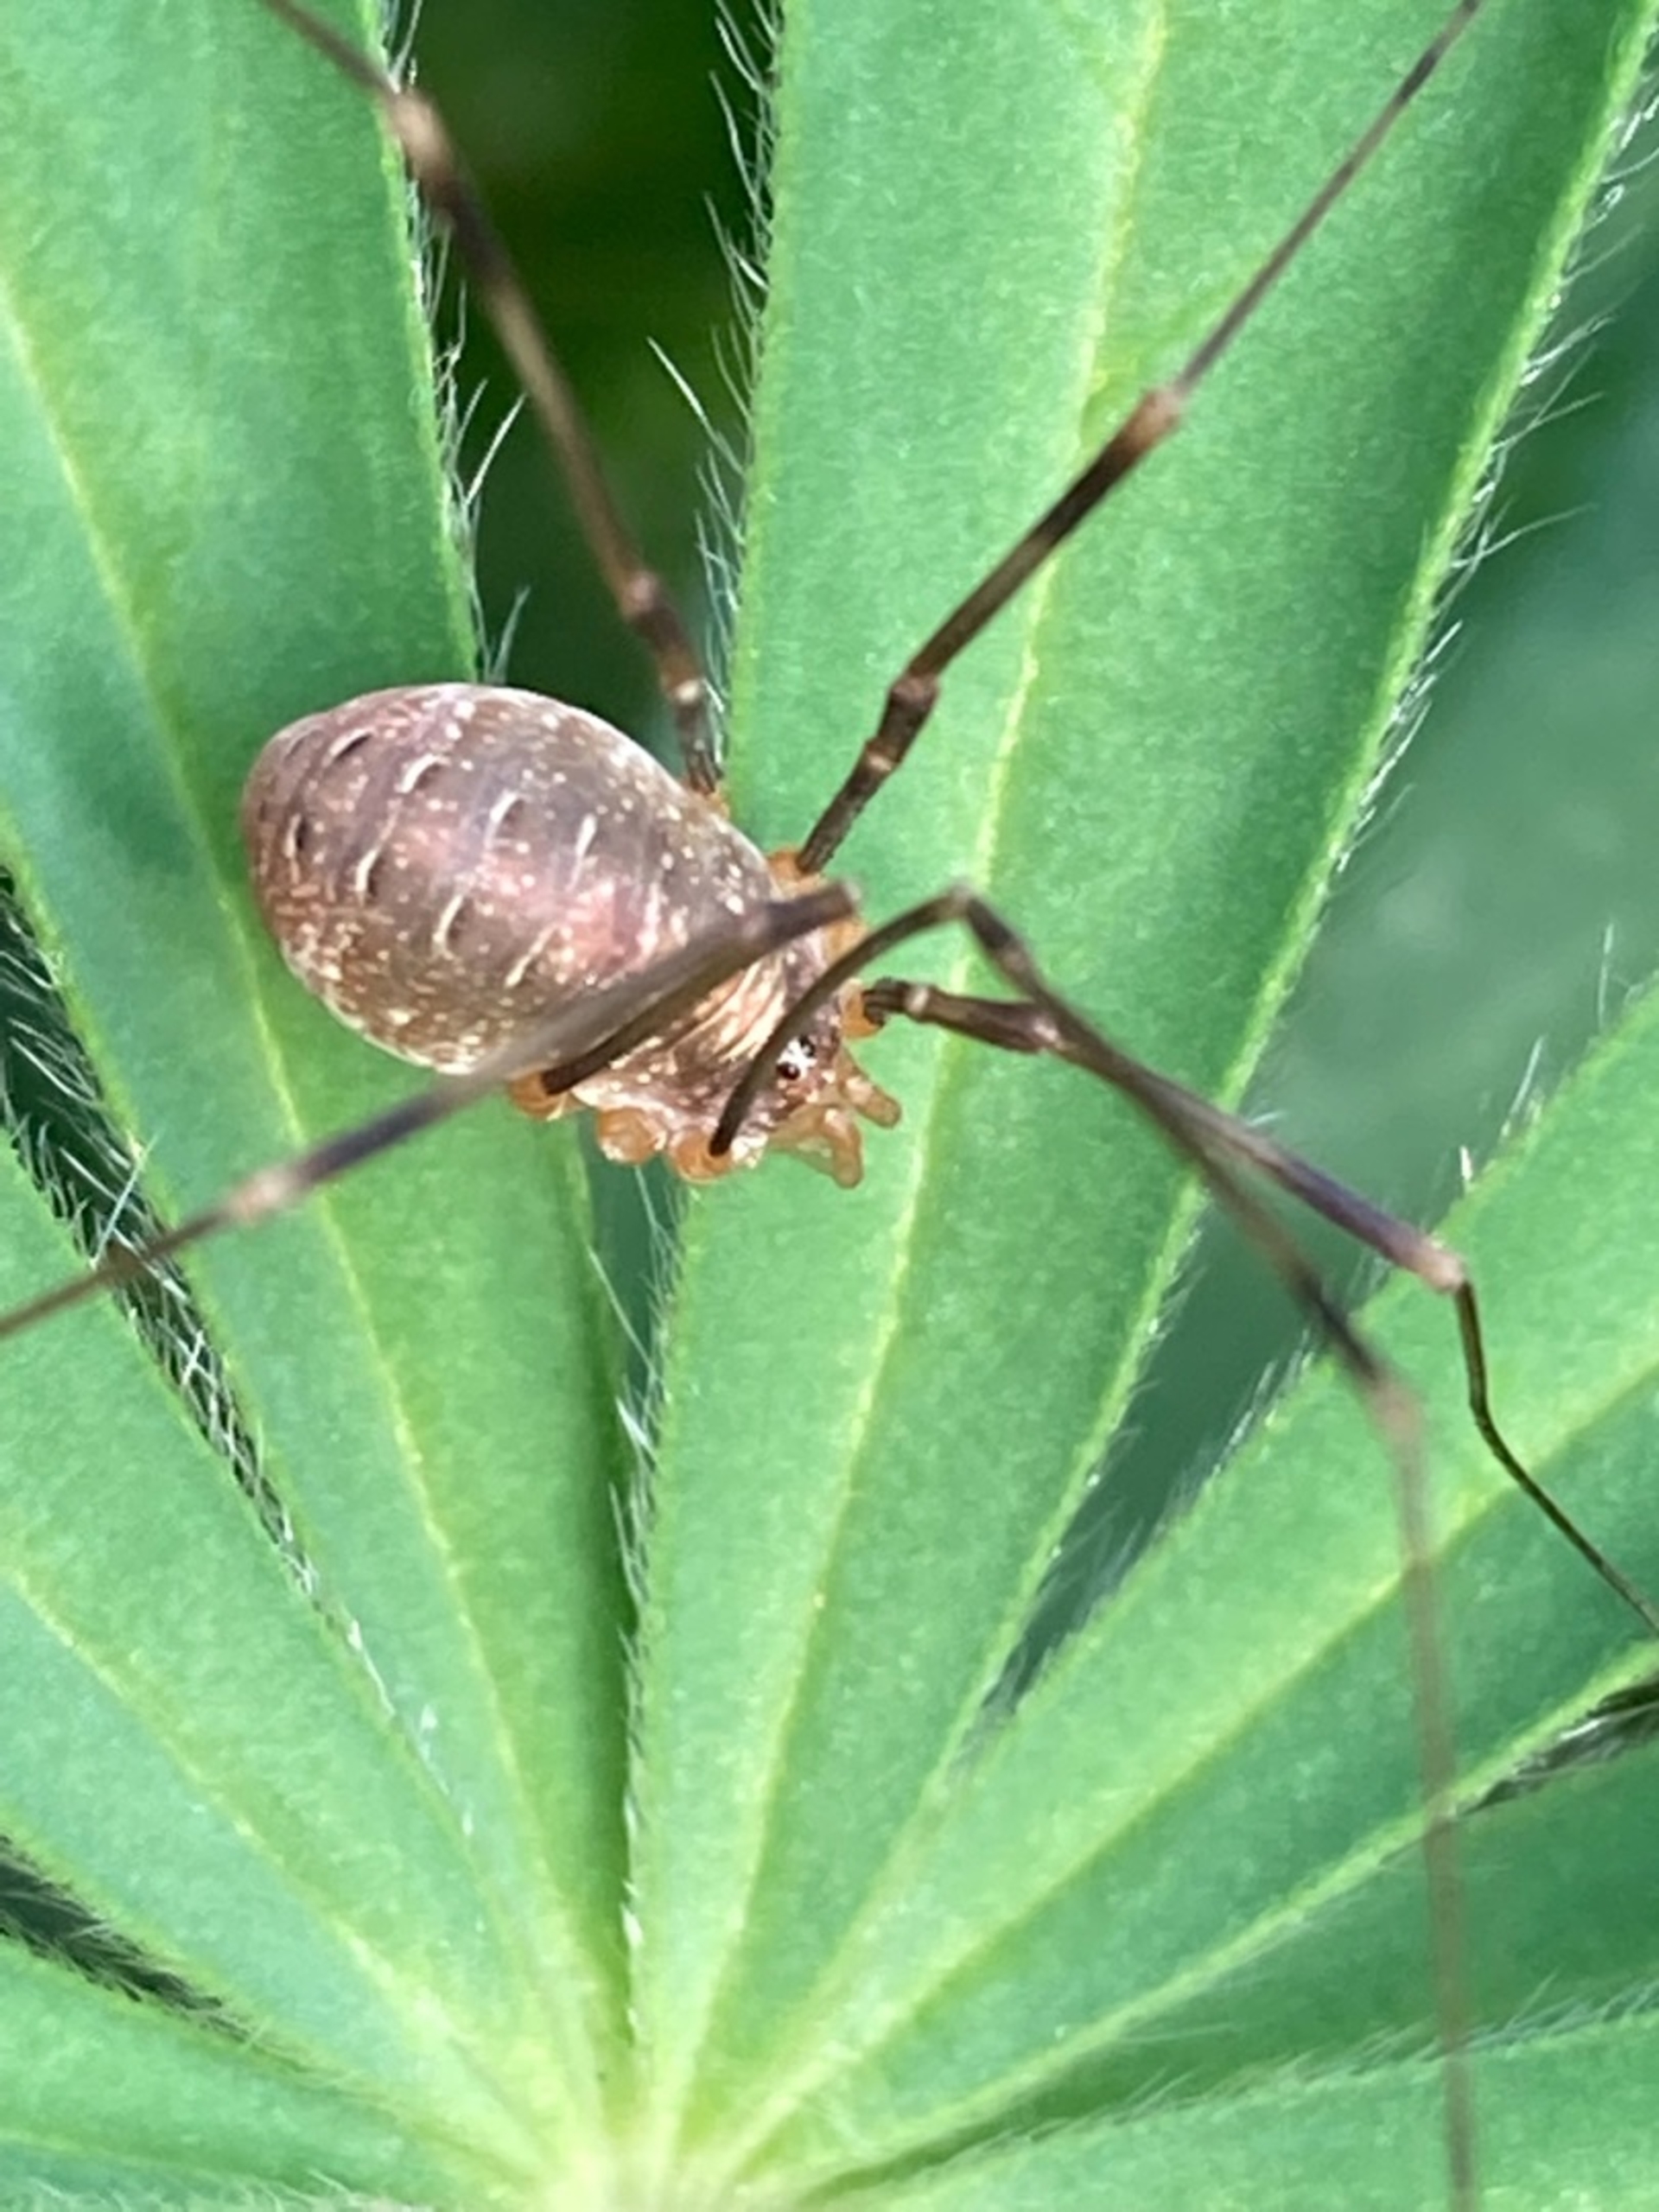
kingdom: Animalia
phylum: Arthropoda
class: Arachnida
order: Opiliones
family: Phalangiidae
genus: Opilio
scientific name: Opilio canestrinii
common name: Orange vægmejer
